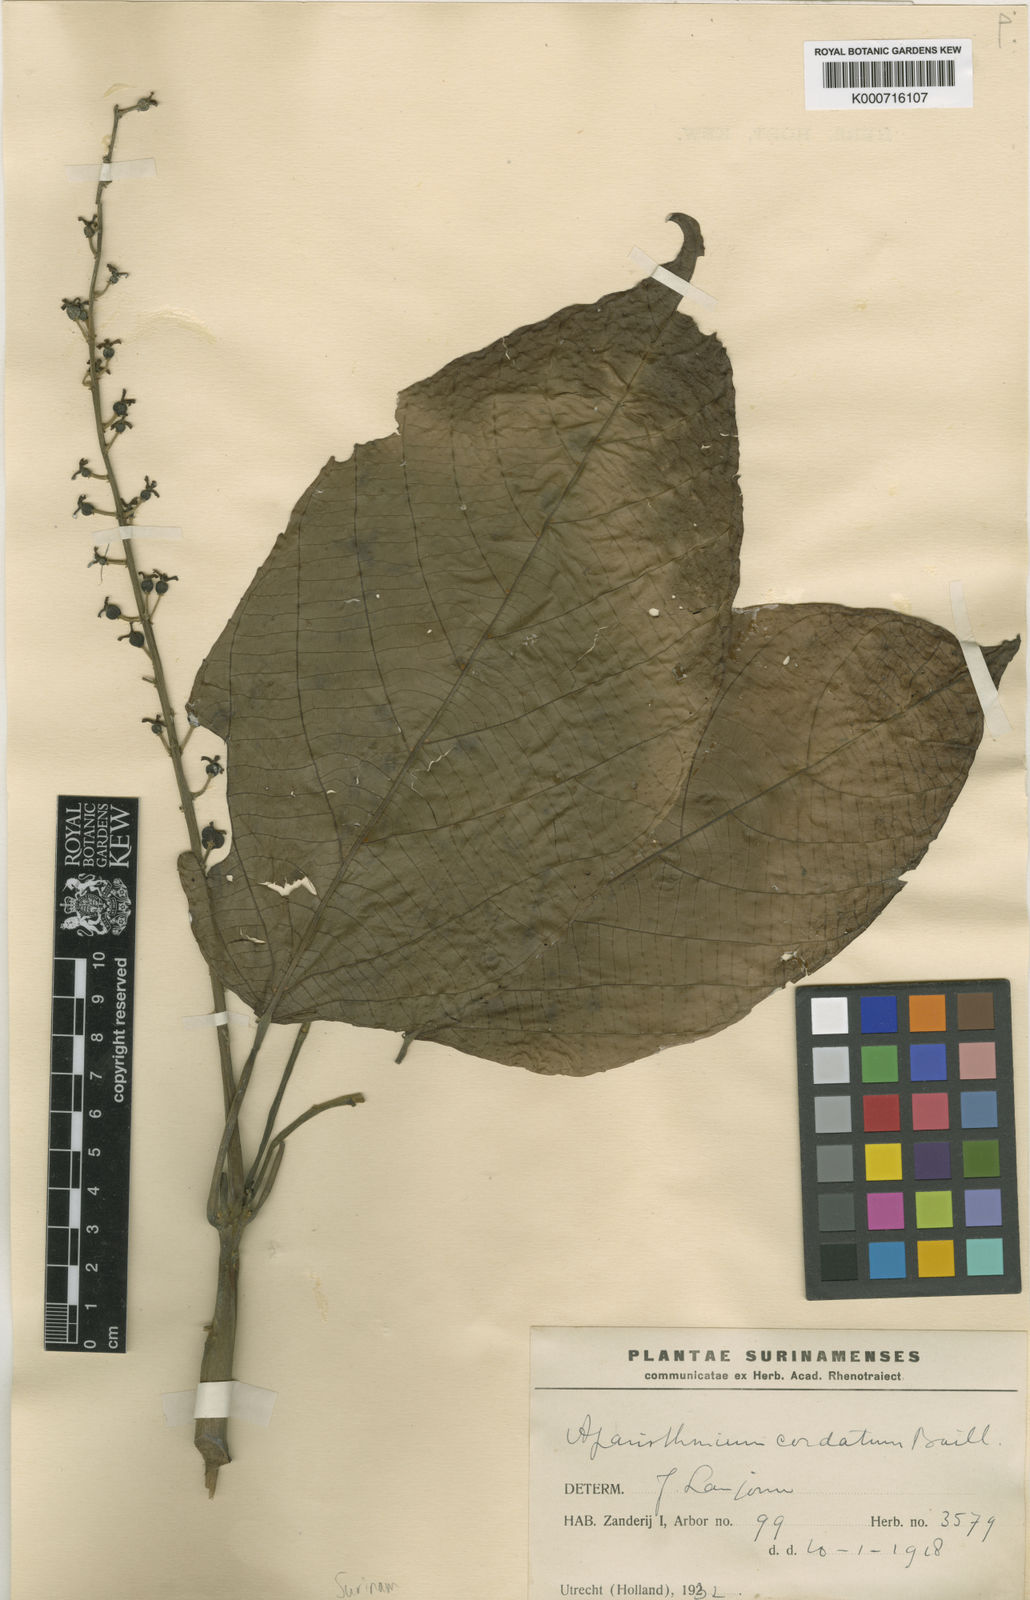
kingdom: Plantae
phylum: Tracheophyta
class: Magnoliopsida
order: Malpighiales
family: Euphorbiaceae
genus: Aparisthmium
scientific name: Aparisthmium cordatum
